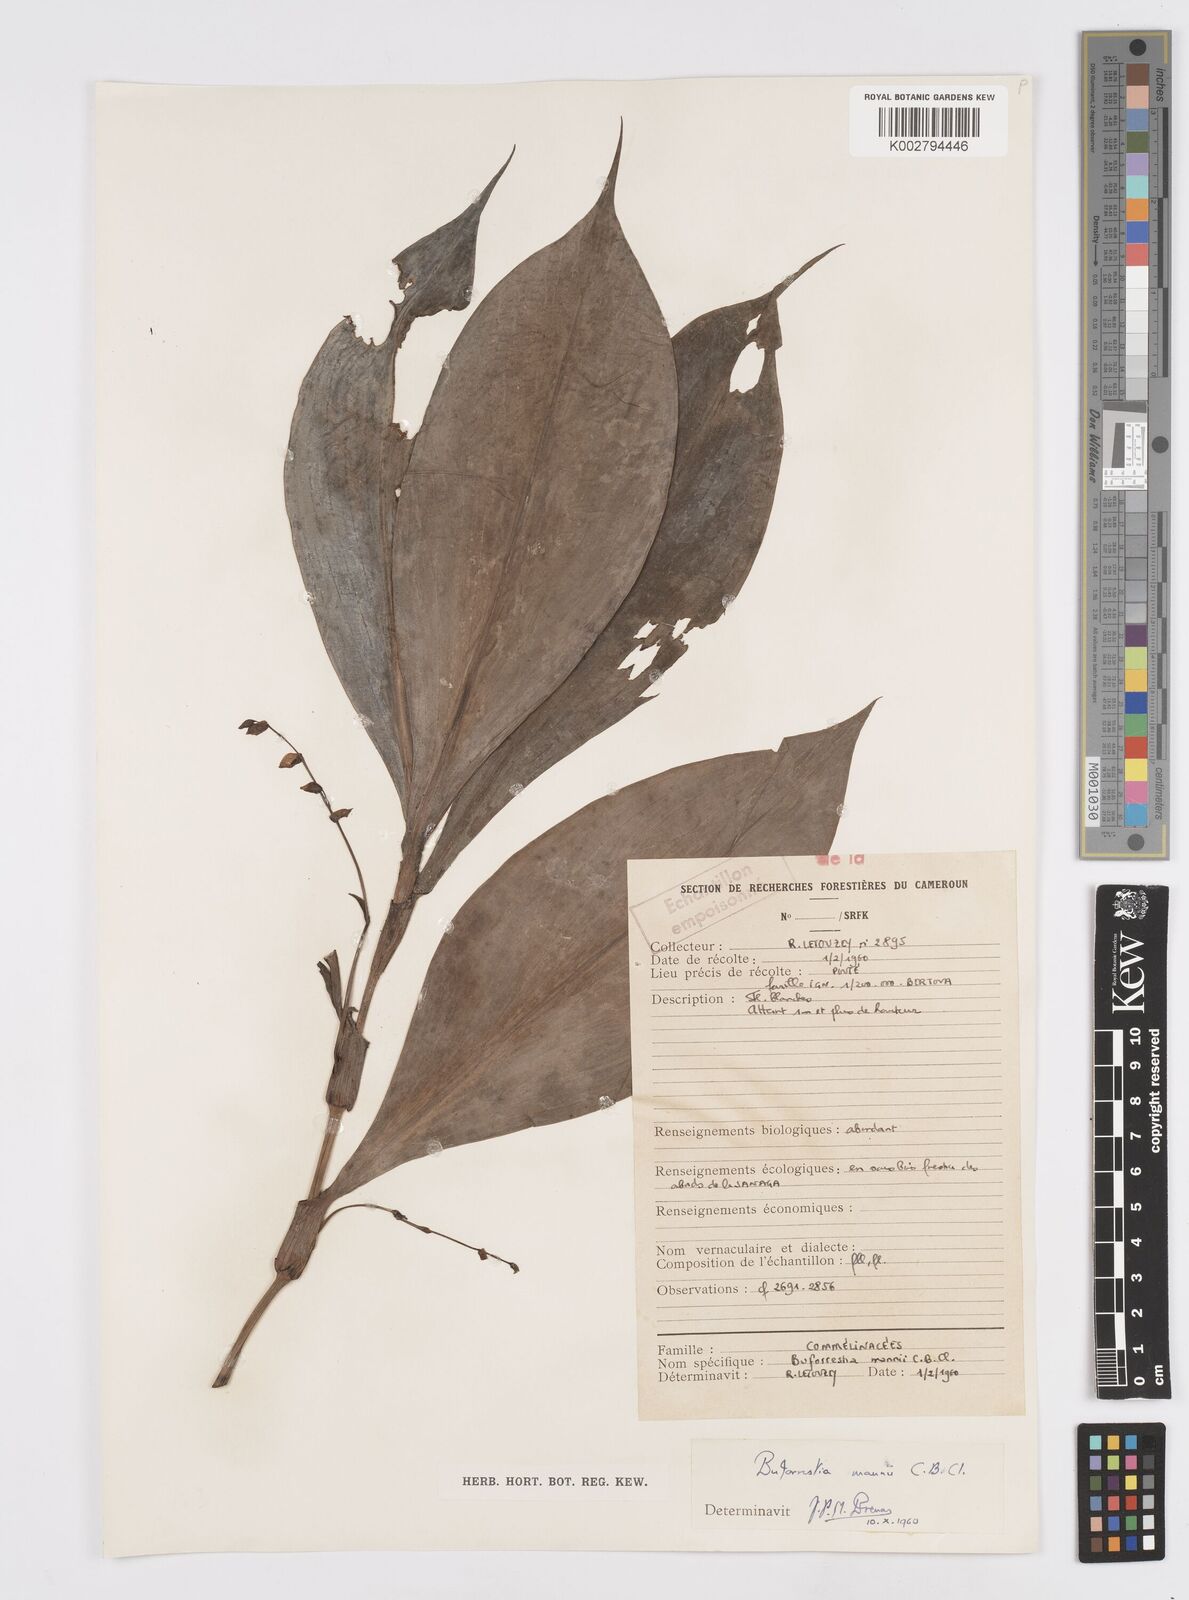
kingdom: Plantae
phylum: Tracheophyta
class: Liliopsida
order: Commelinales
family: Commelinaceae
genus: Buforrestia
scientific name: Buforrestia mannii
